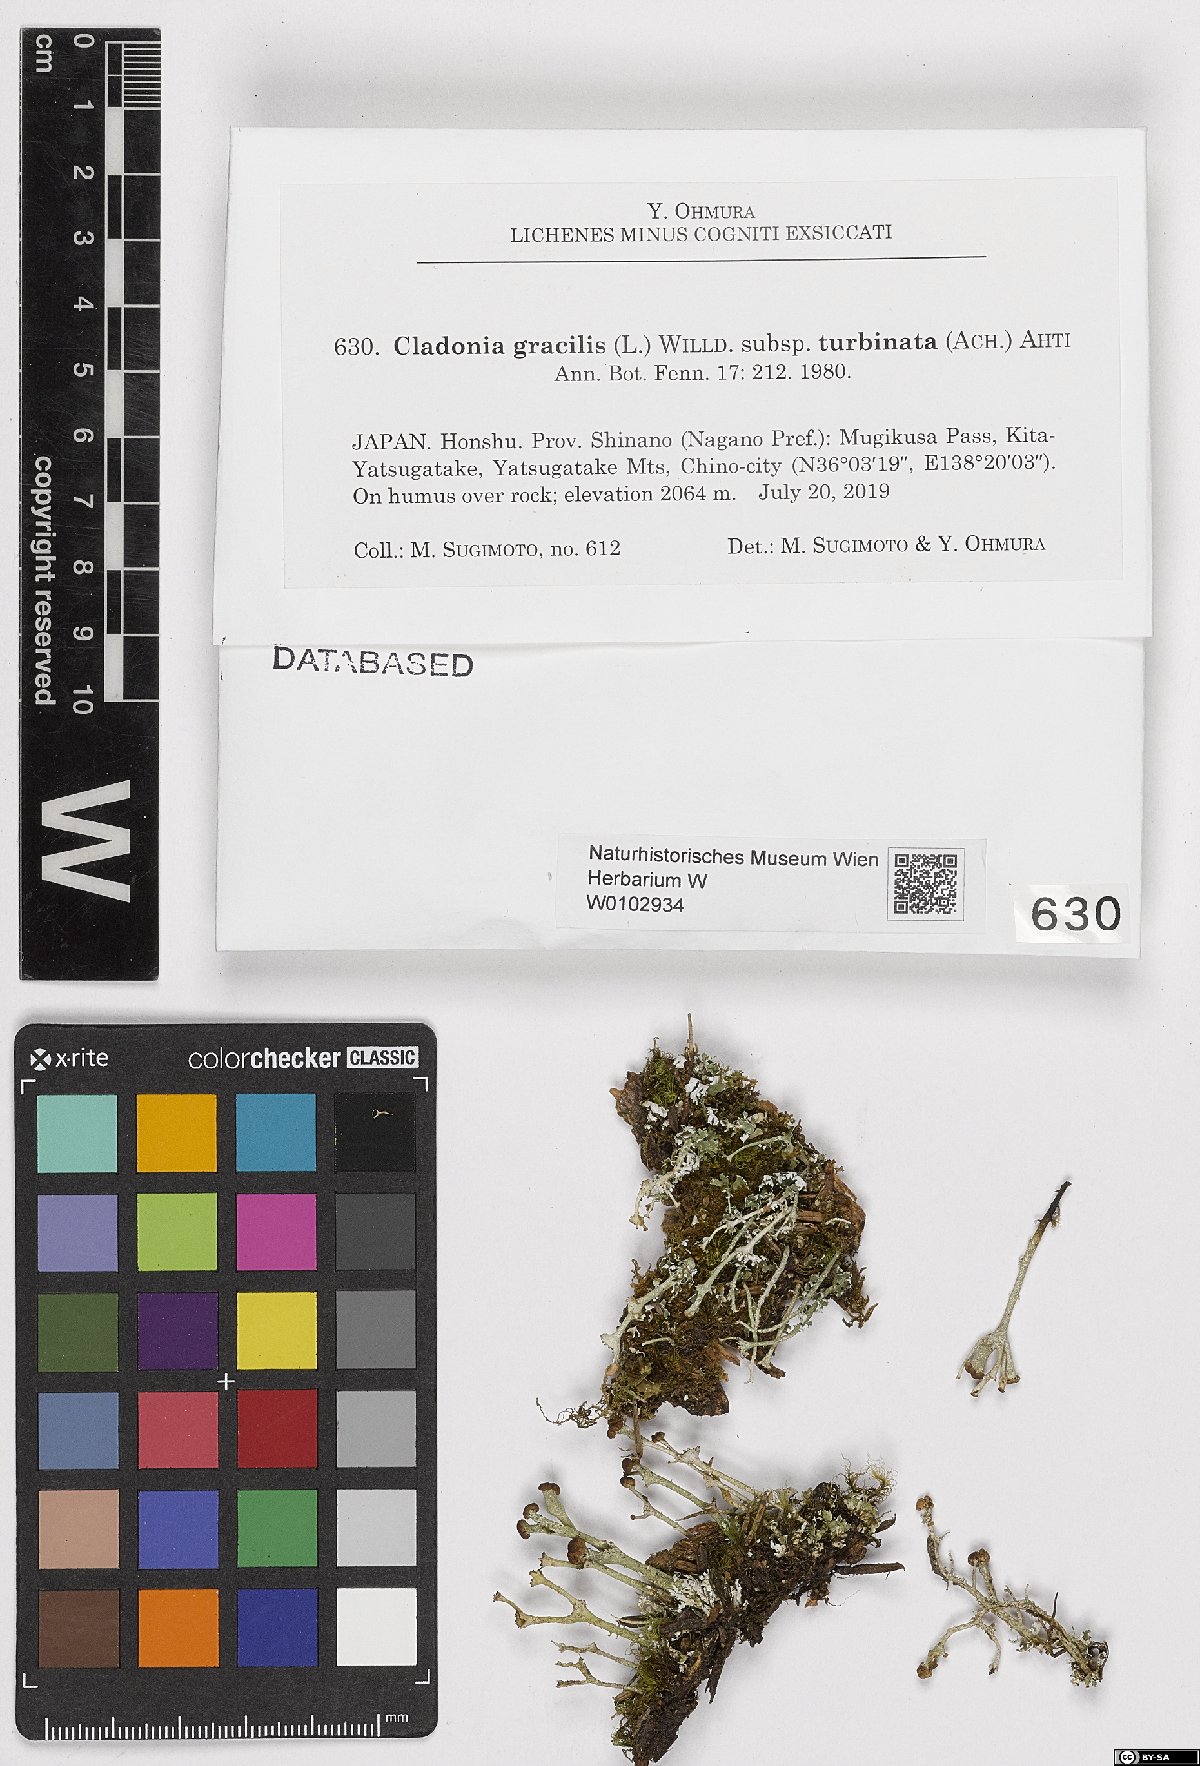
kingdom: Fungi
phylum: Ascomycota
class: Lecanoromycetes
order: Lecanorales
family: Cladoniaceae
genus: Cladonia
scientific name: Cladonia gracilis
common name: Smooth clad lichen
